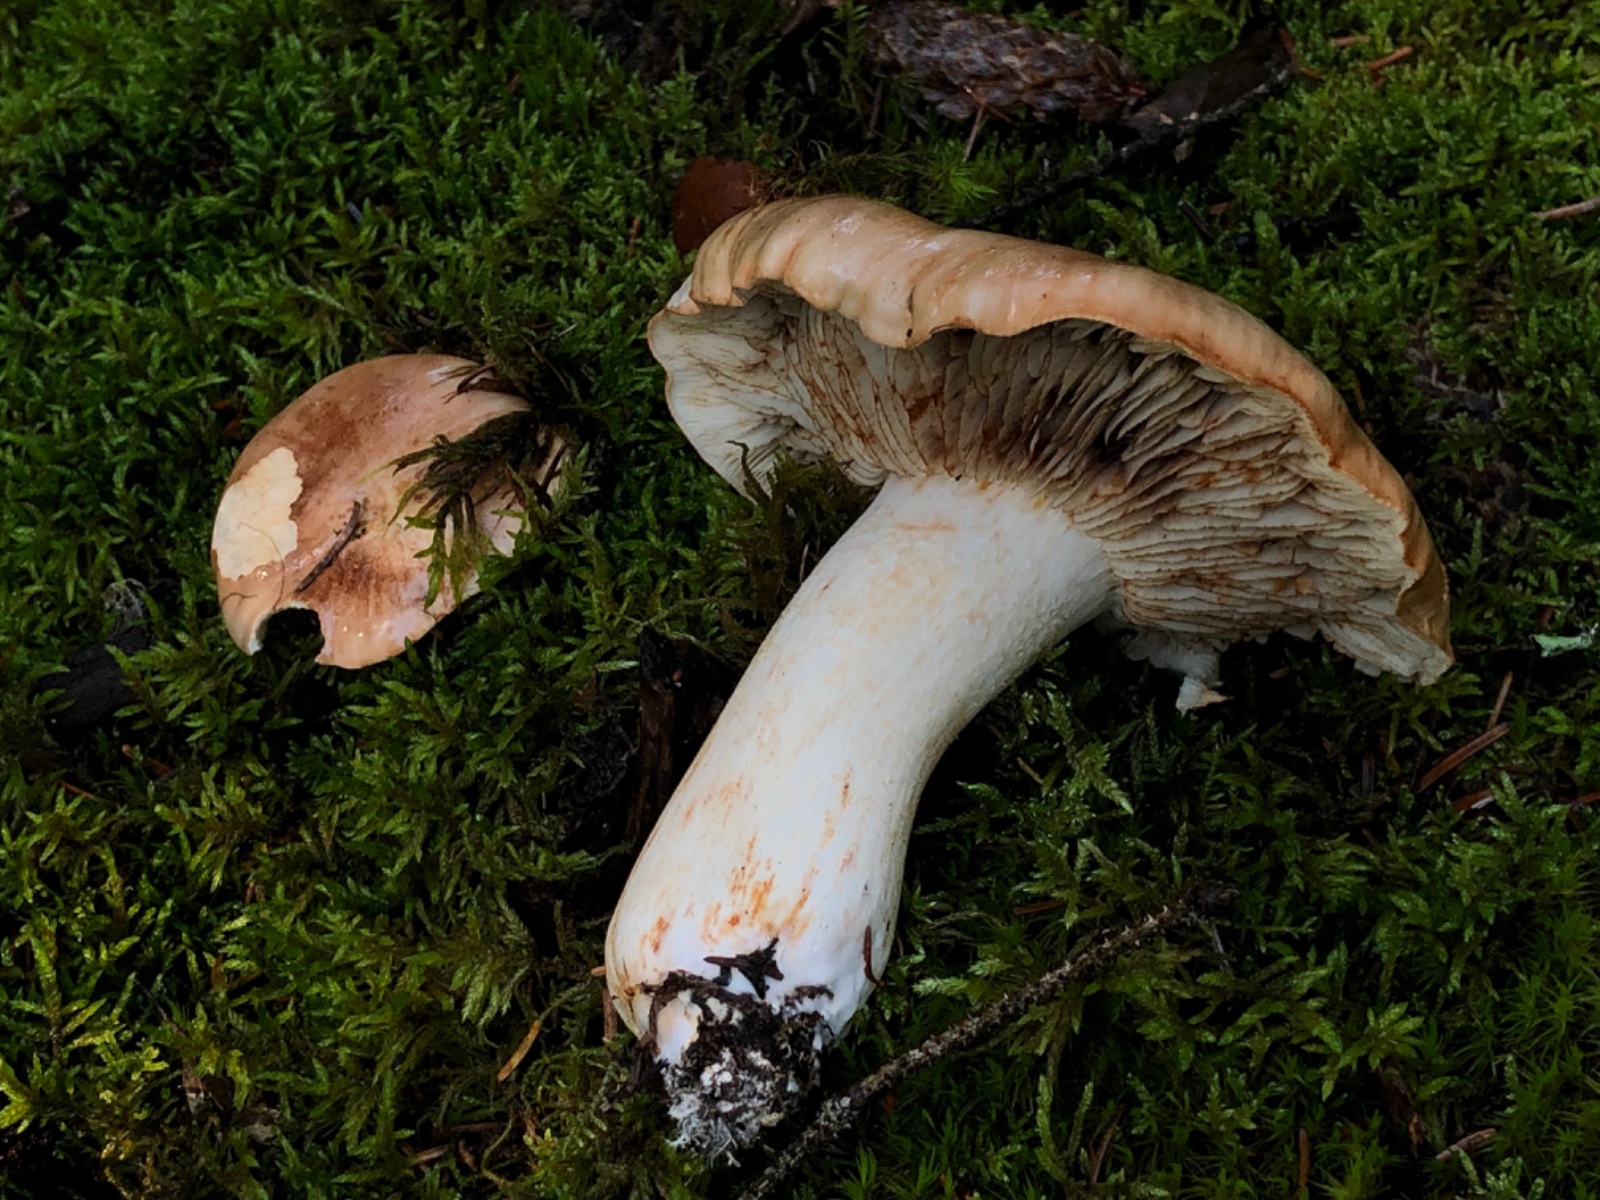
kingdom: Fungi
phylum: Basidiomycota
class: Agaricomycetes
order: Agaricales
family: Tricholomataceae
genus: Tricholoma
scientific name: Tricholoma
